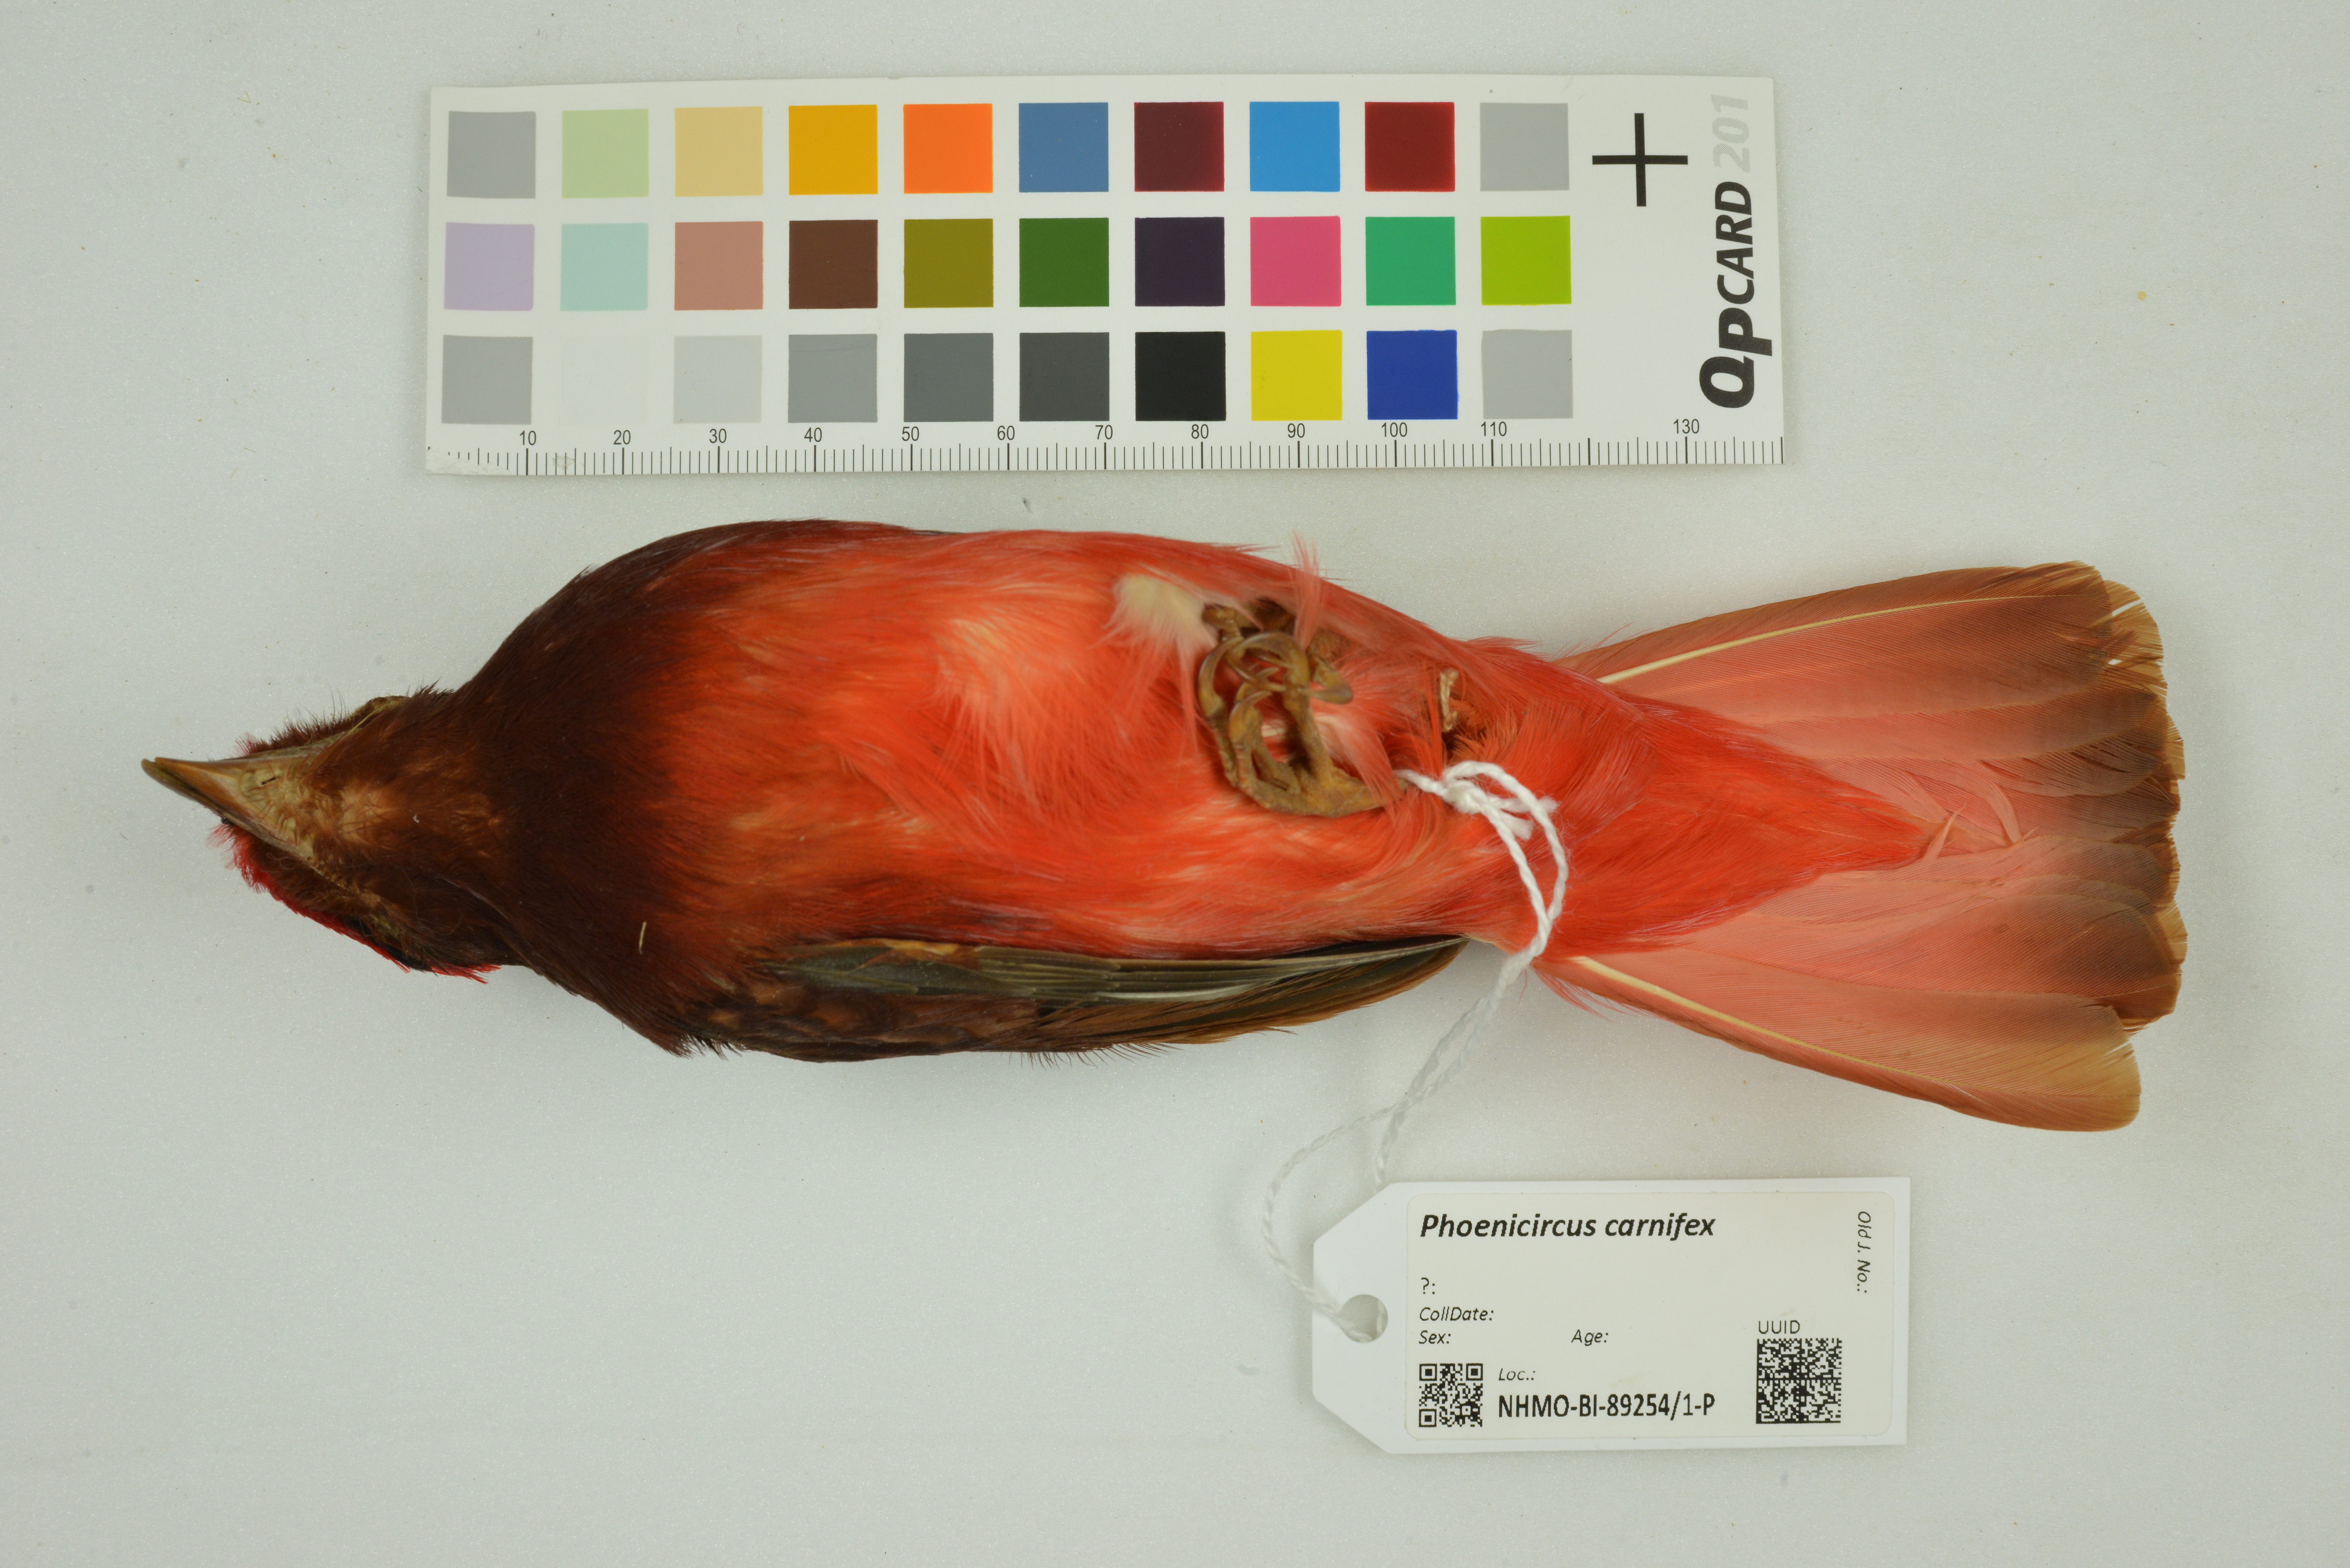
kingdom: Animalia
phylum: Chordata
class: Aves
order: Passeriformes
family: Cotingidae
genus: Phoenicircus
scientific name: Phoenicircus carnifex
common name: Guianan red cotinga
